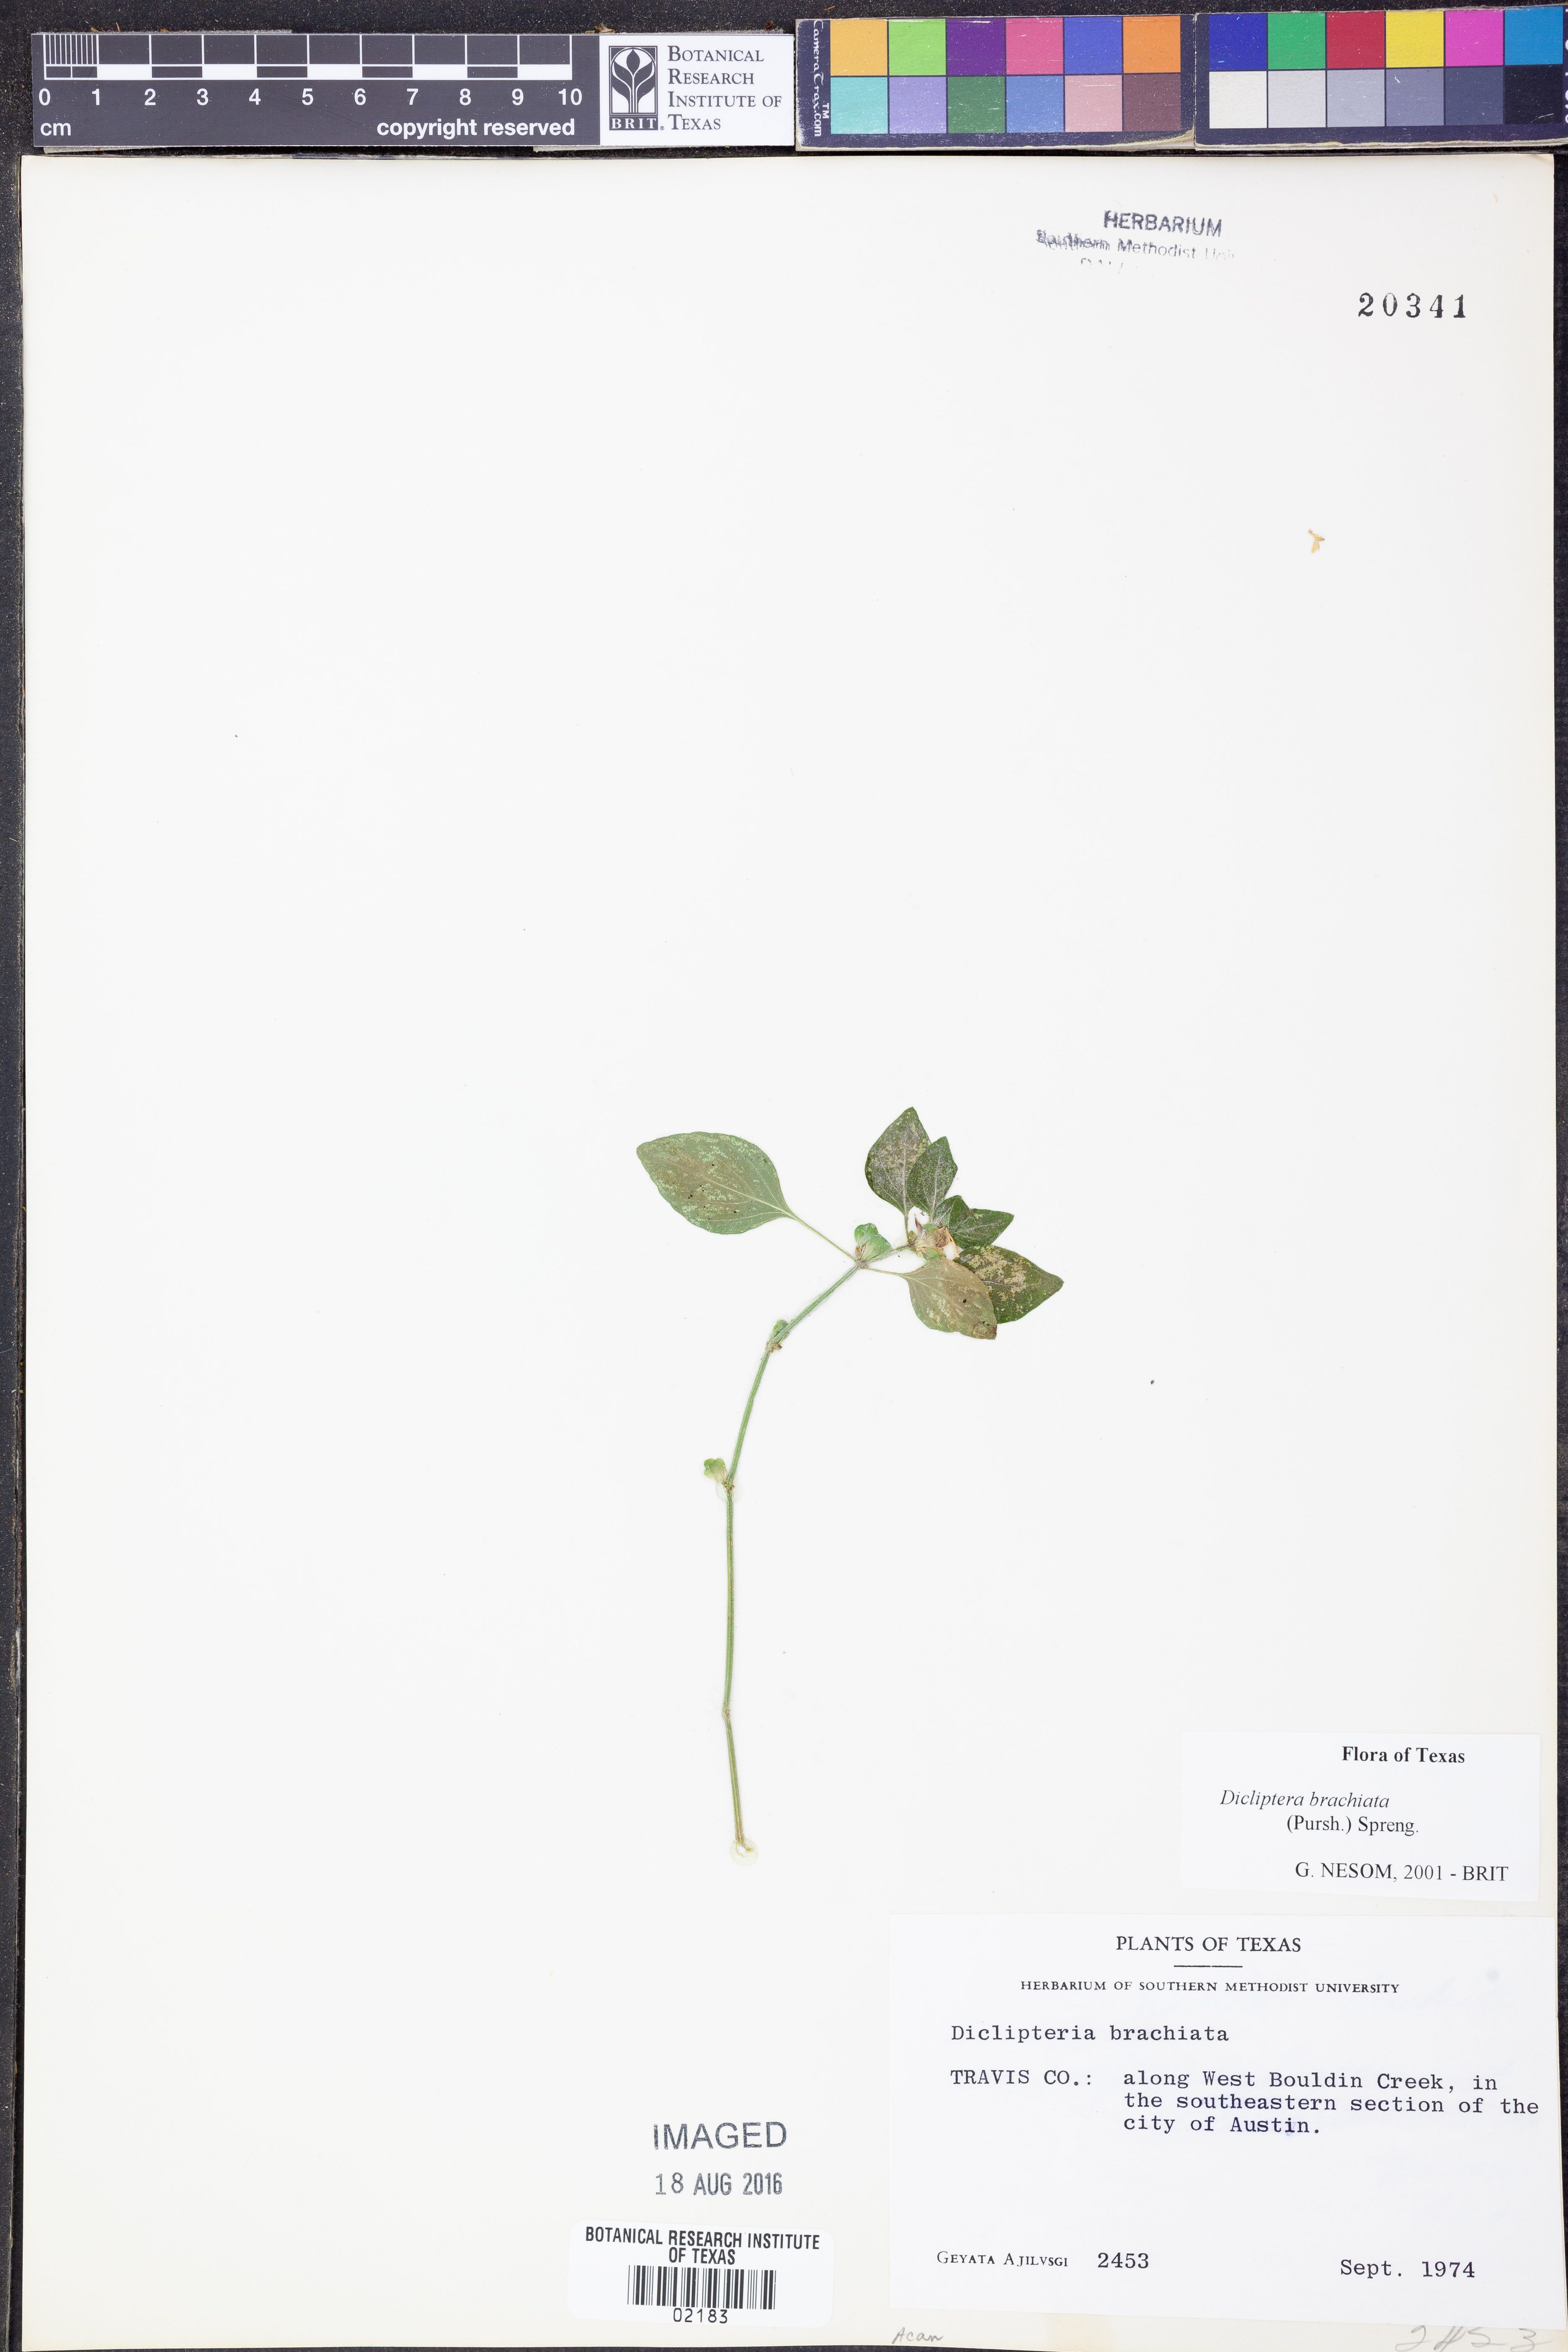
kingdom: Plantae
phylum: Tracheophyta
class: Magnoliopsida
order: Lamiales
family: Acanthaceae
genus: Dicliptera
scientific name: Dicliptera brachiata
